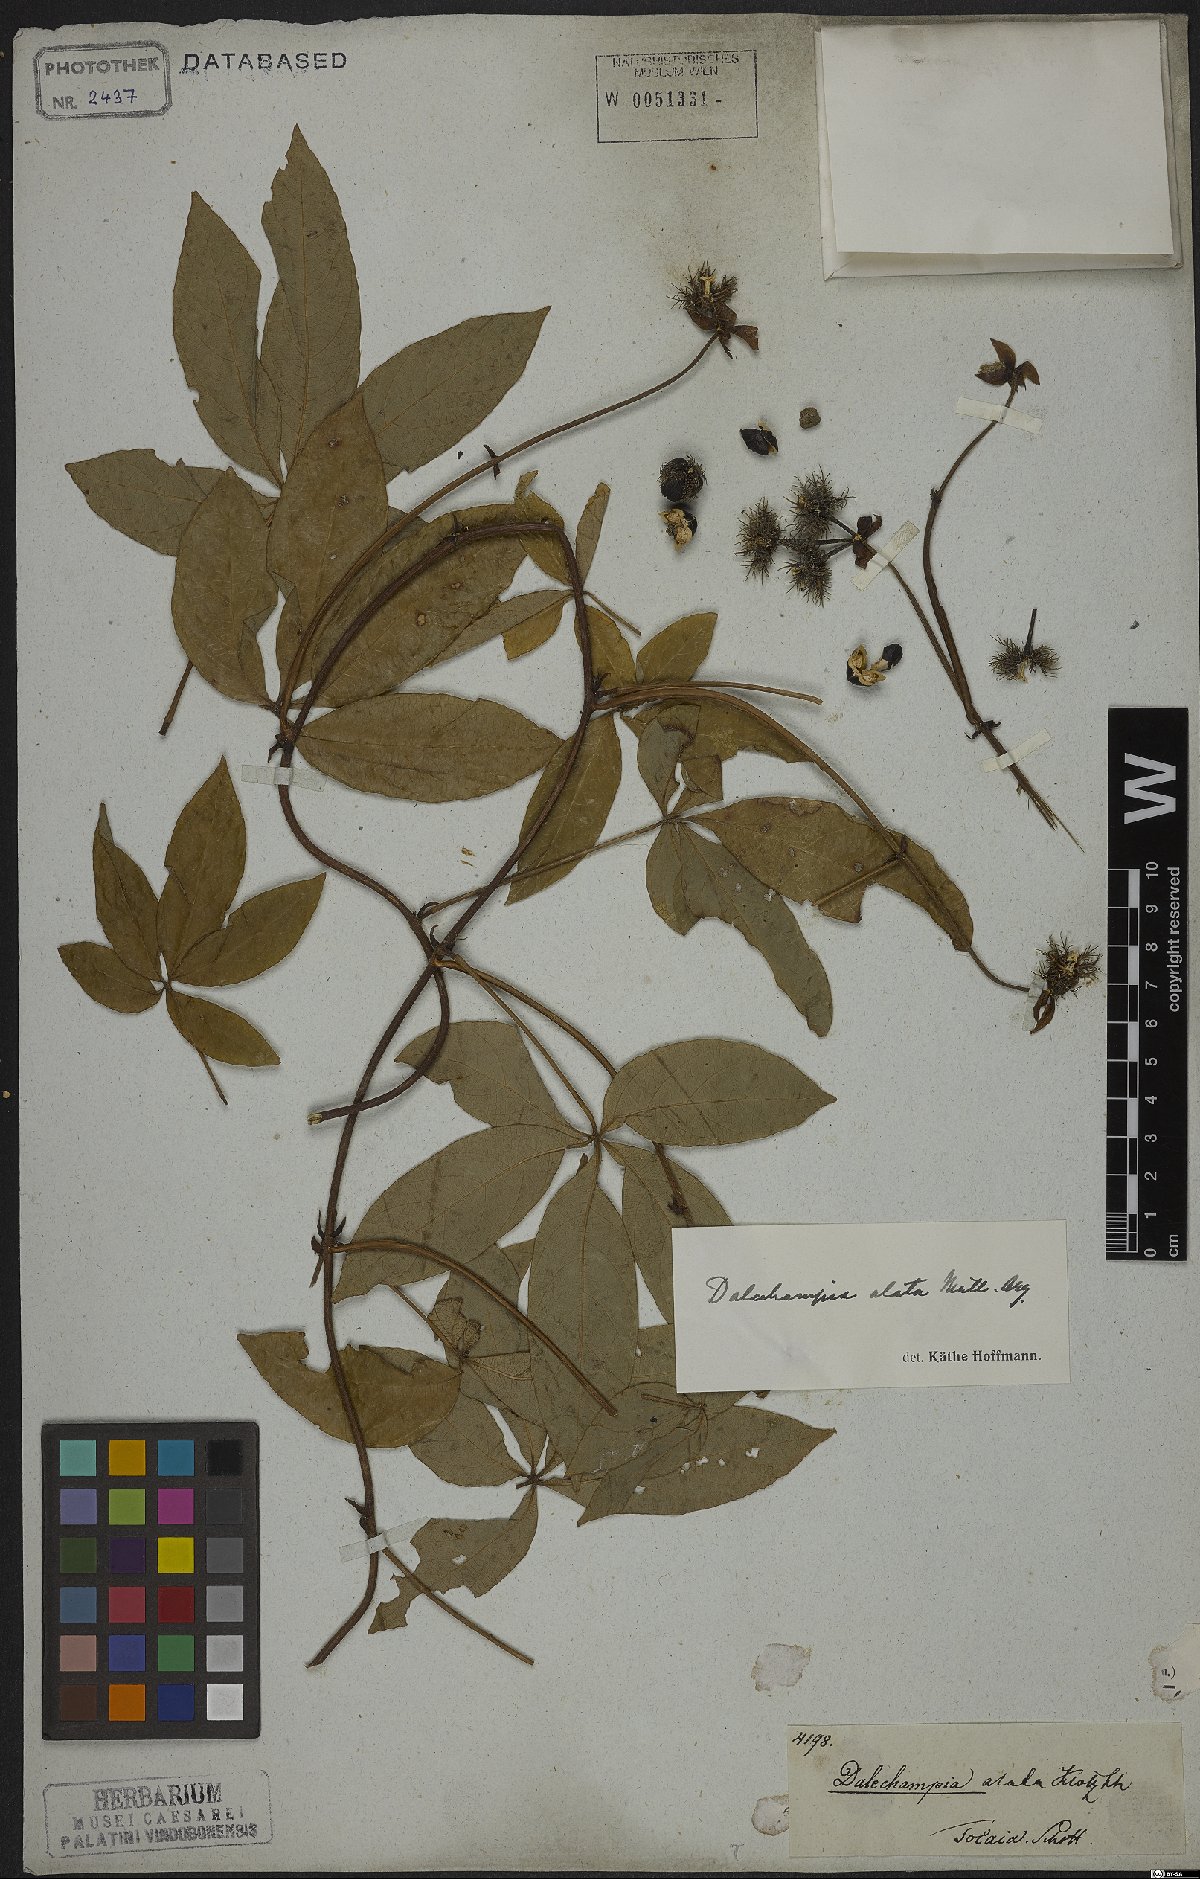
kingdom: Plantae
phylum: Tracheophyta
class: Magnoliopsida
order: Malpighiales
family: Euphorbiaceae
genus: Dalechampia
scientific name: Dalechampia alata
